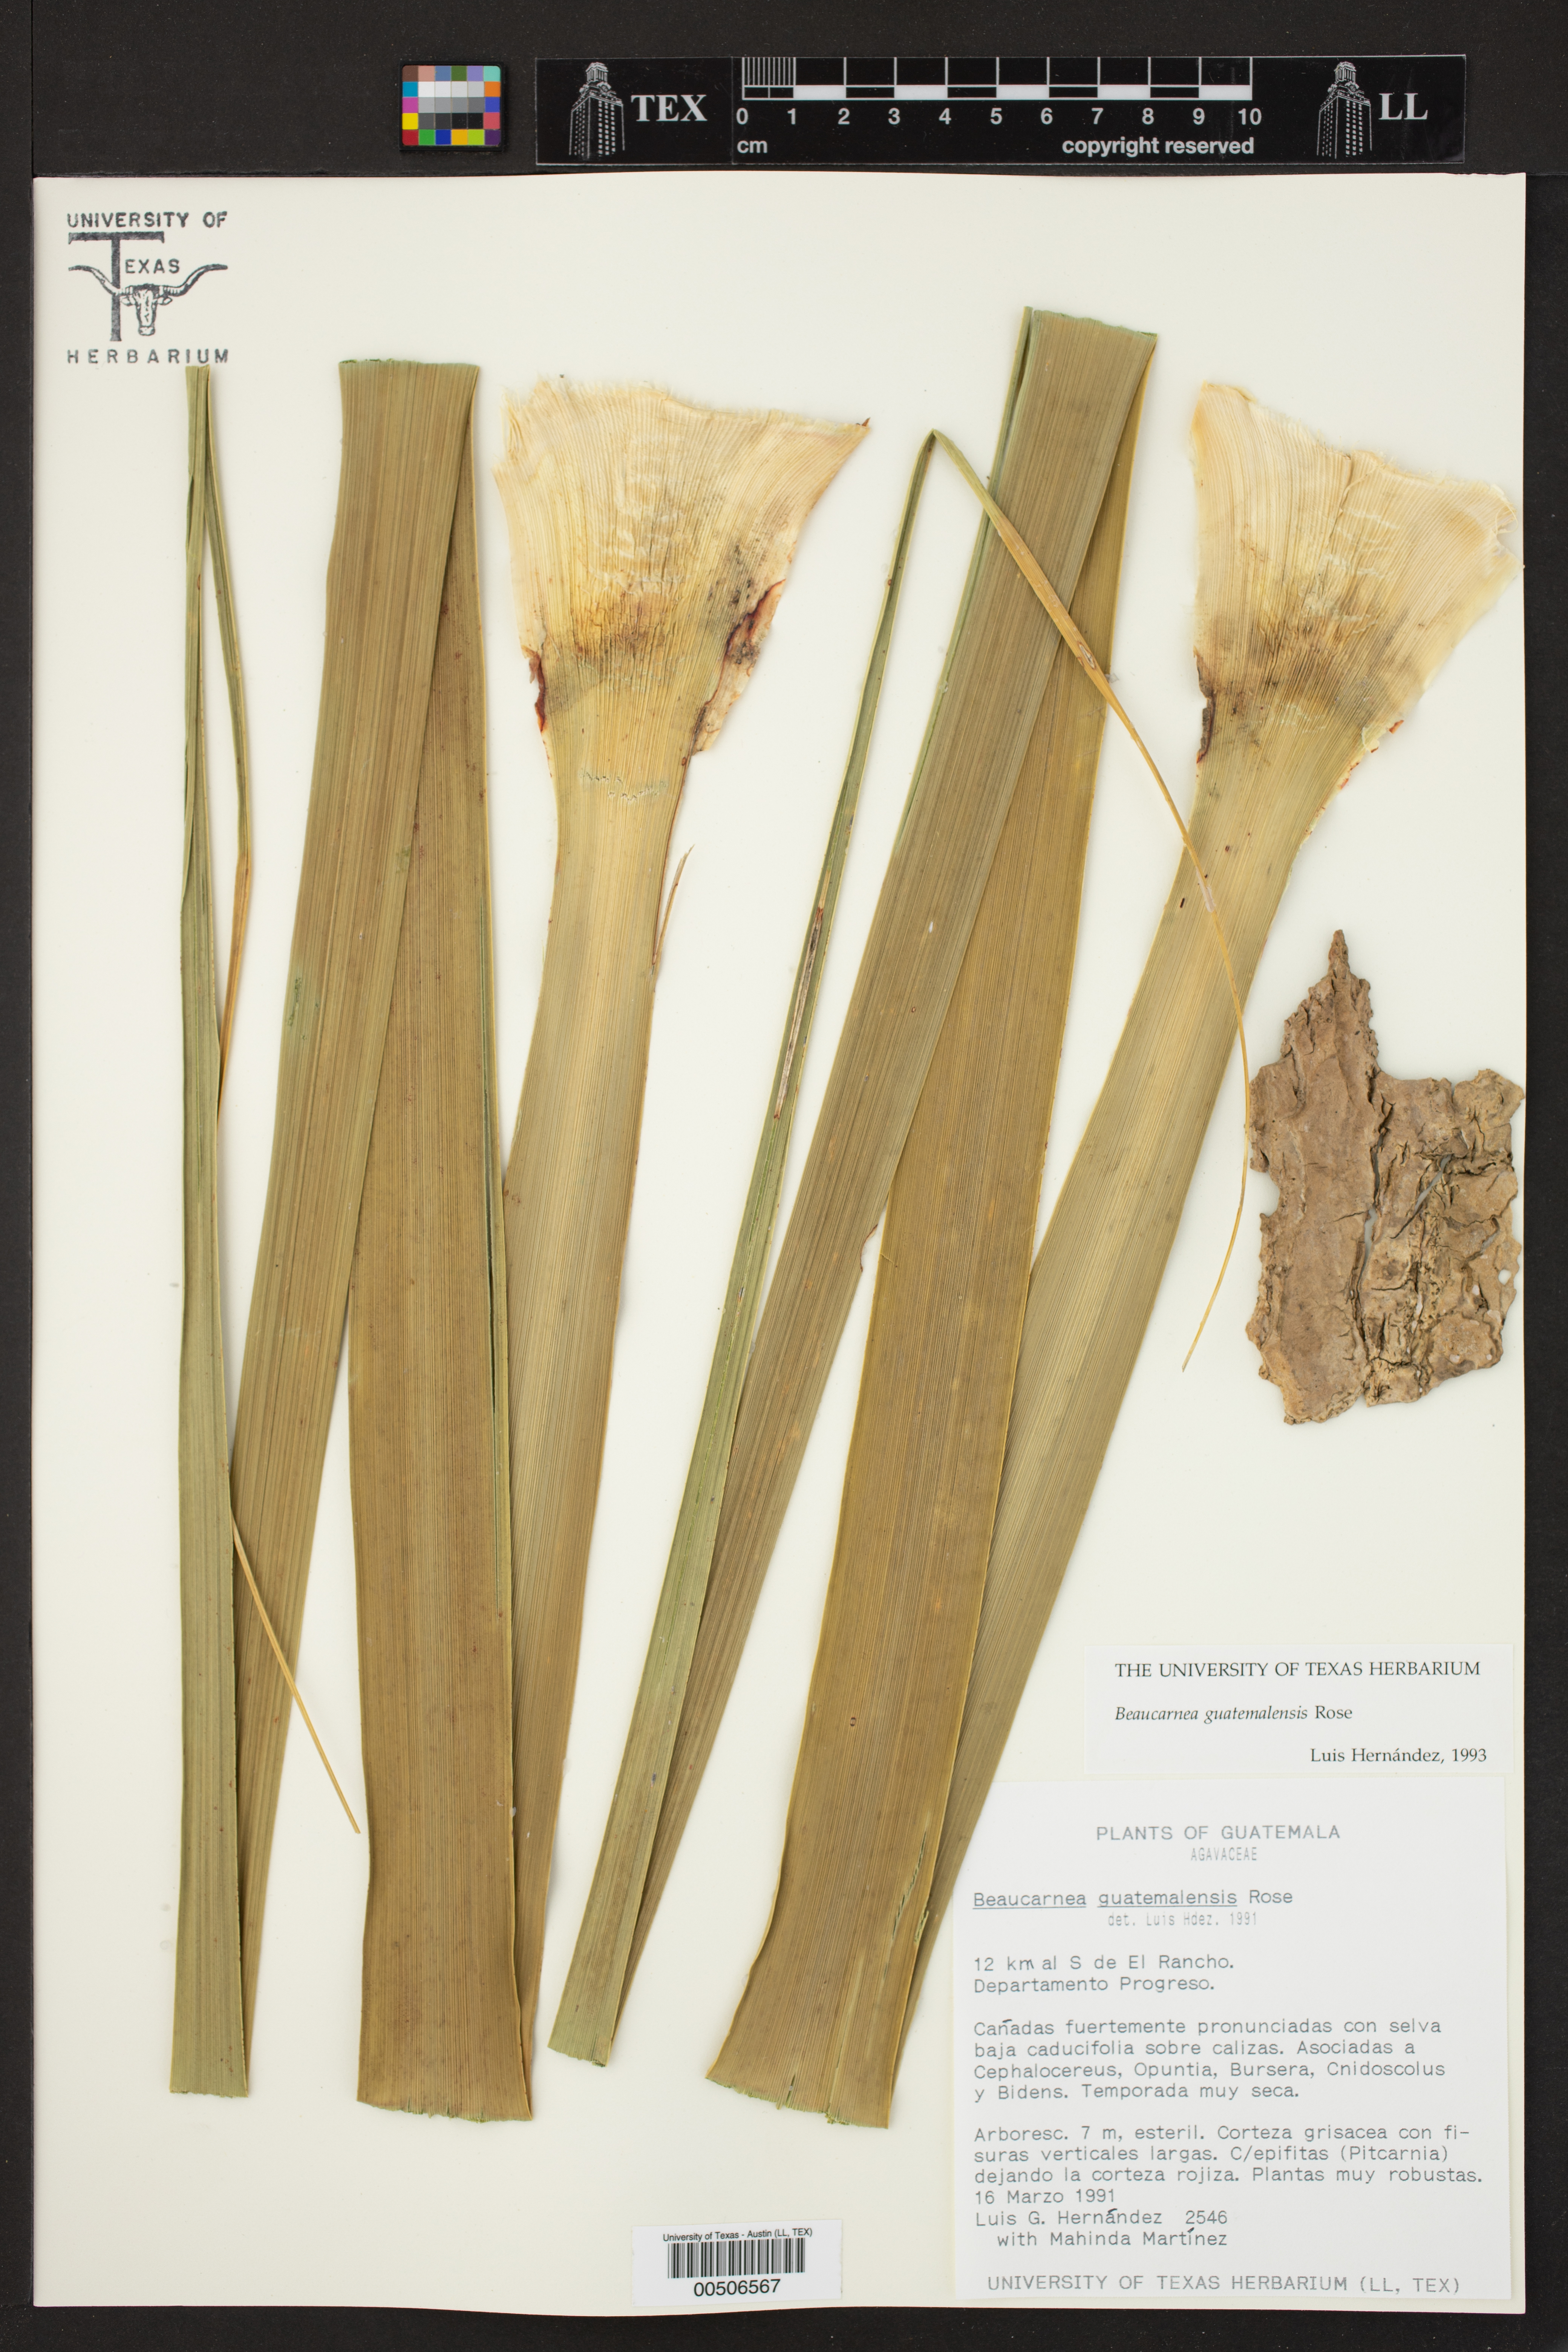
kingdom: Plantae
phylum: Tracheophyta
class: Liliopsida
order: Asparagales
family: Asparagaceae
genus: Beaucarnea
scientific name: Beaucarnea guatemalensis
